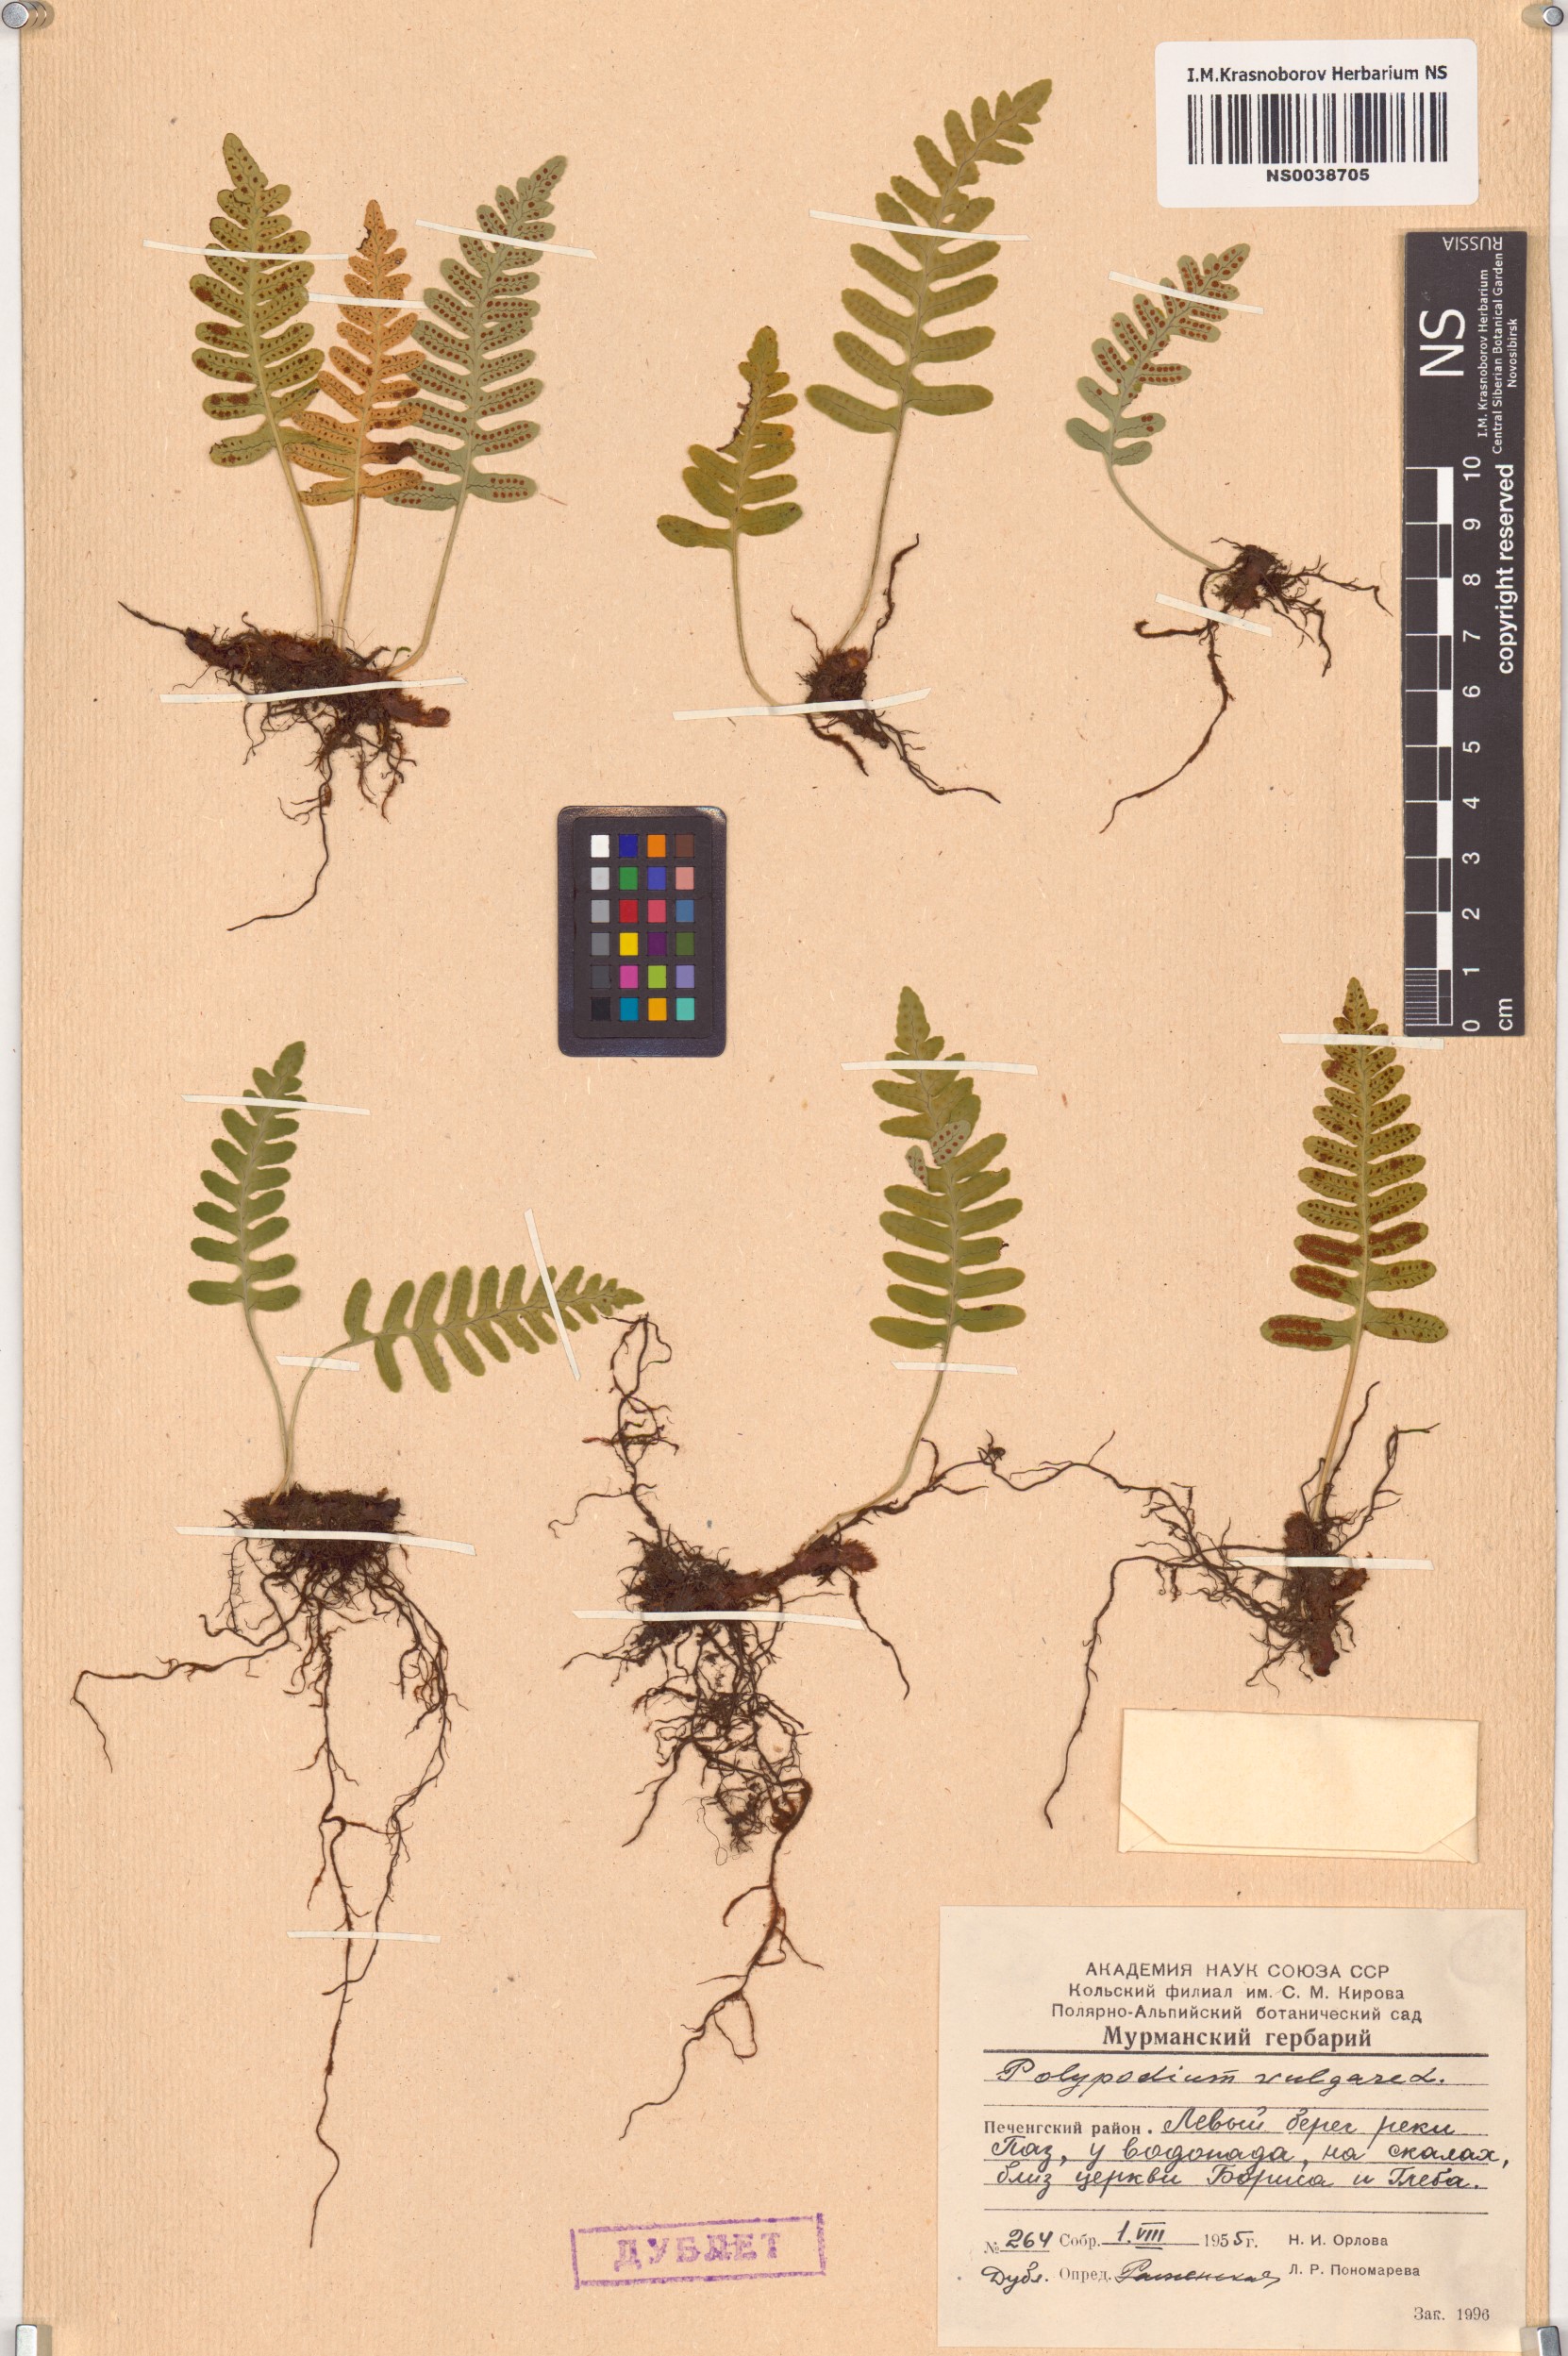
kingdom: Plantae
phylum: Tracheophyta
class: Polypodiopsida
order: Polypodiales
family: Polypodiaceae
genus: Polypodium
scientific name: Polypodium vulgare
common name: Common polypody
